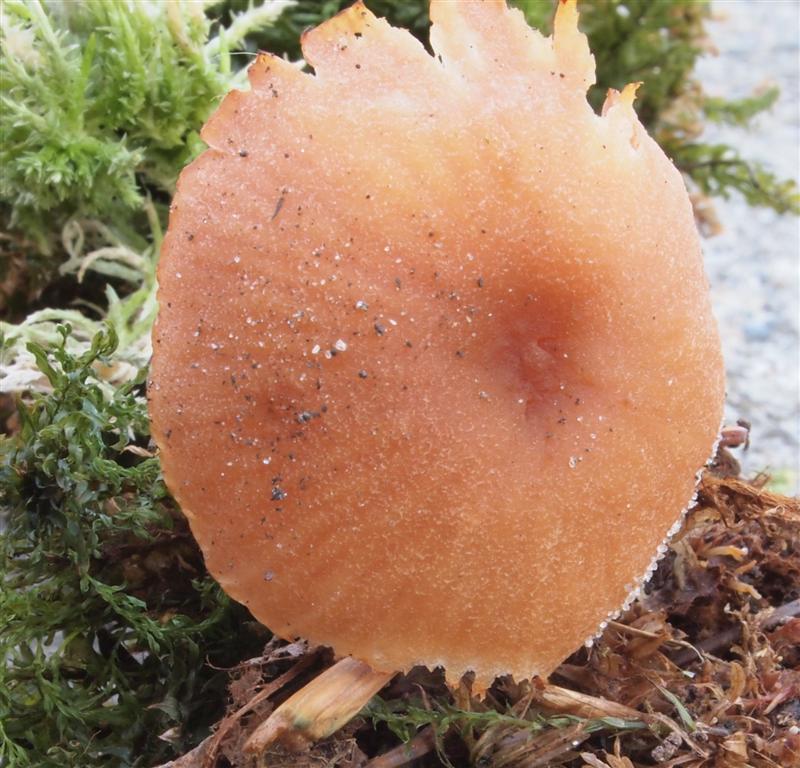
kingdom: Fungi
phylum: Basidiomycota
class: Agaricomycetes
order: Agaricales
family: Hydnangiaceae
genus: Laccaria
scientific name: Laccaria proxima
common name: stor ametysthat
